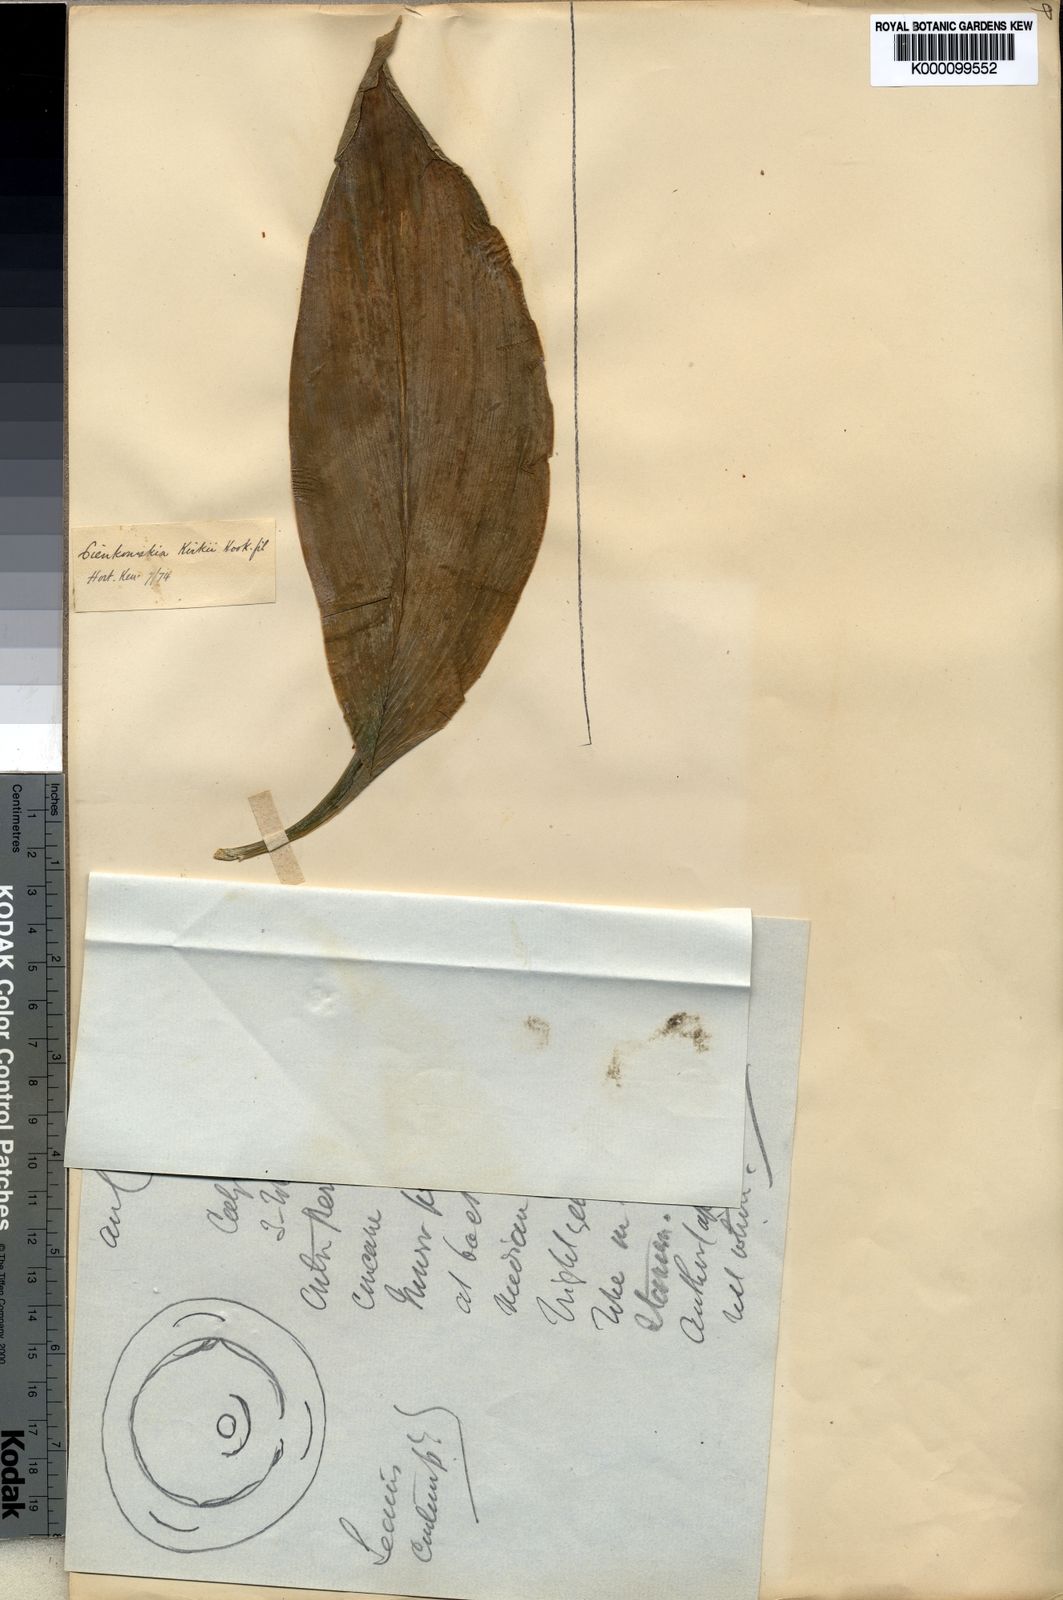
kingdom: Plantae
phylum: Tracheophyta
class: Liliopsida
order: Zingiberales
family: Zingiberaceae
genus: Siphonochilus
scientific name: Siphonochilus kirkii
